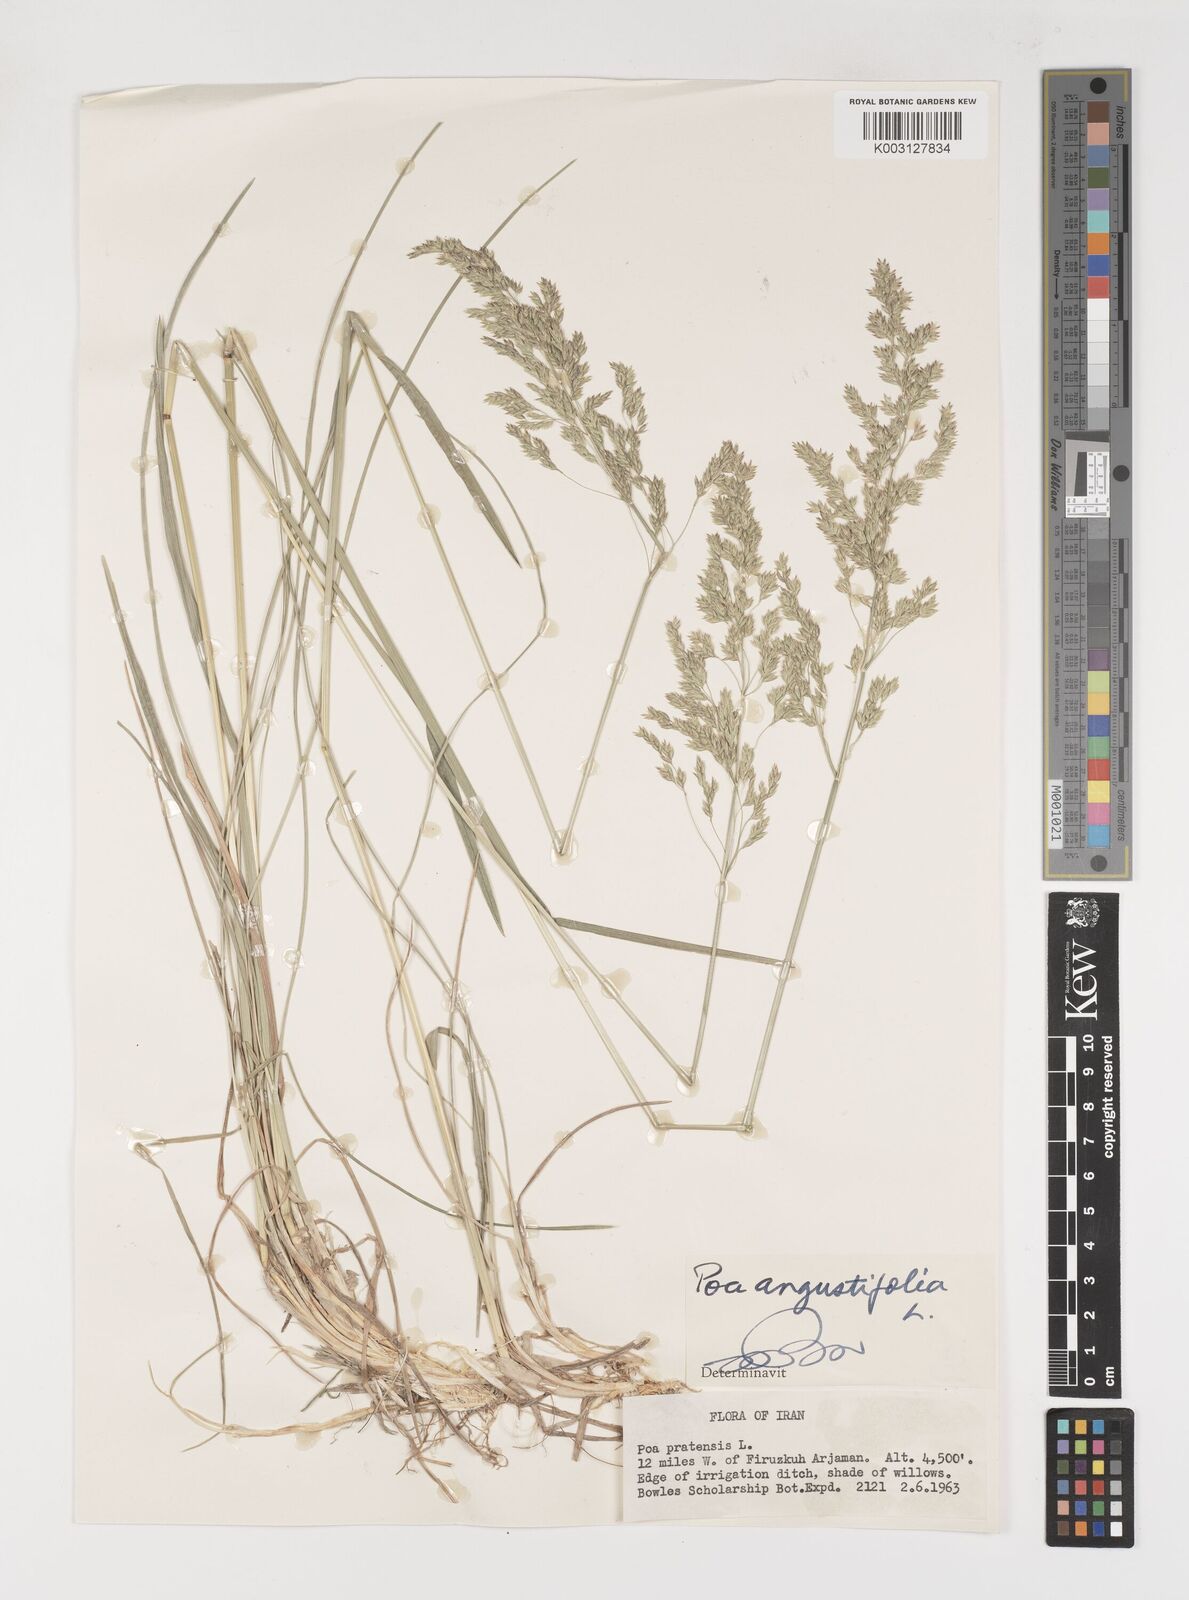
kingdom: Plantae
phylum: Tracheophyta
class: Liliopsida
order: Poales
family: Poaceae
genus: Poa
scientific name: Poa angustifolia
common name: Narrow-leaved meadow-grass
